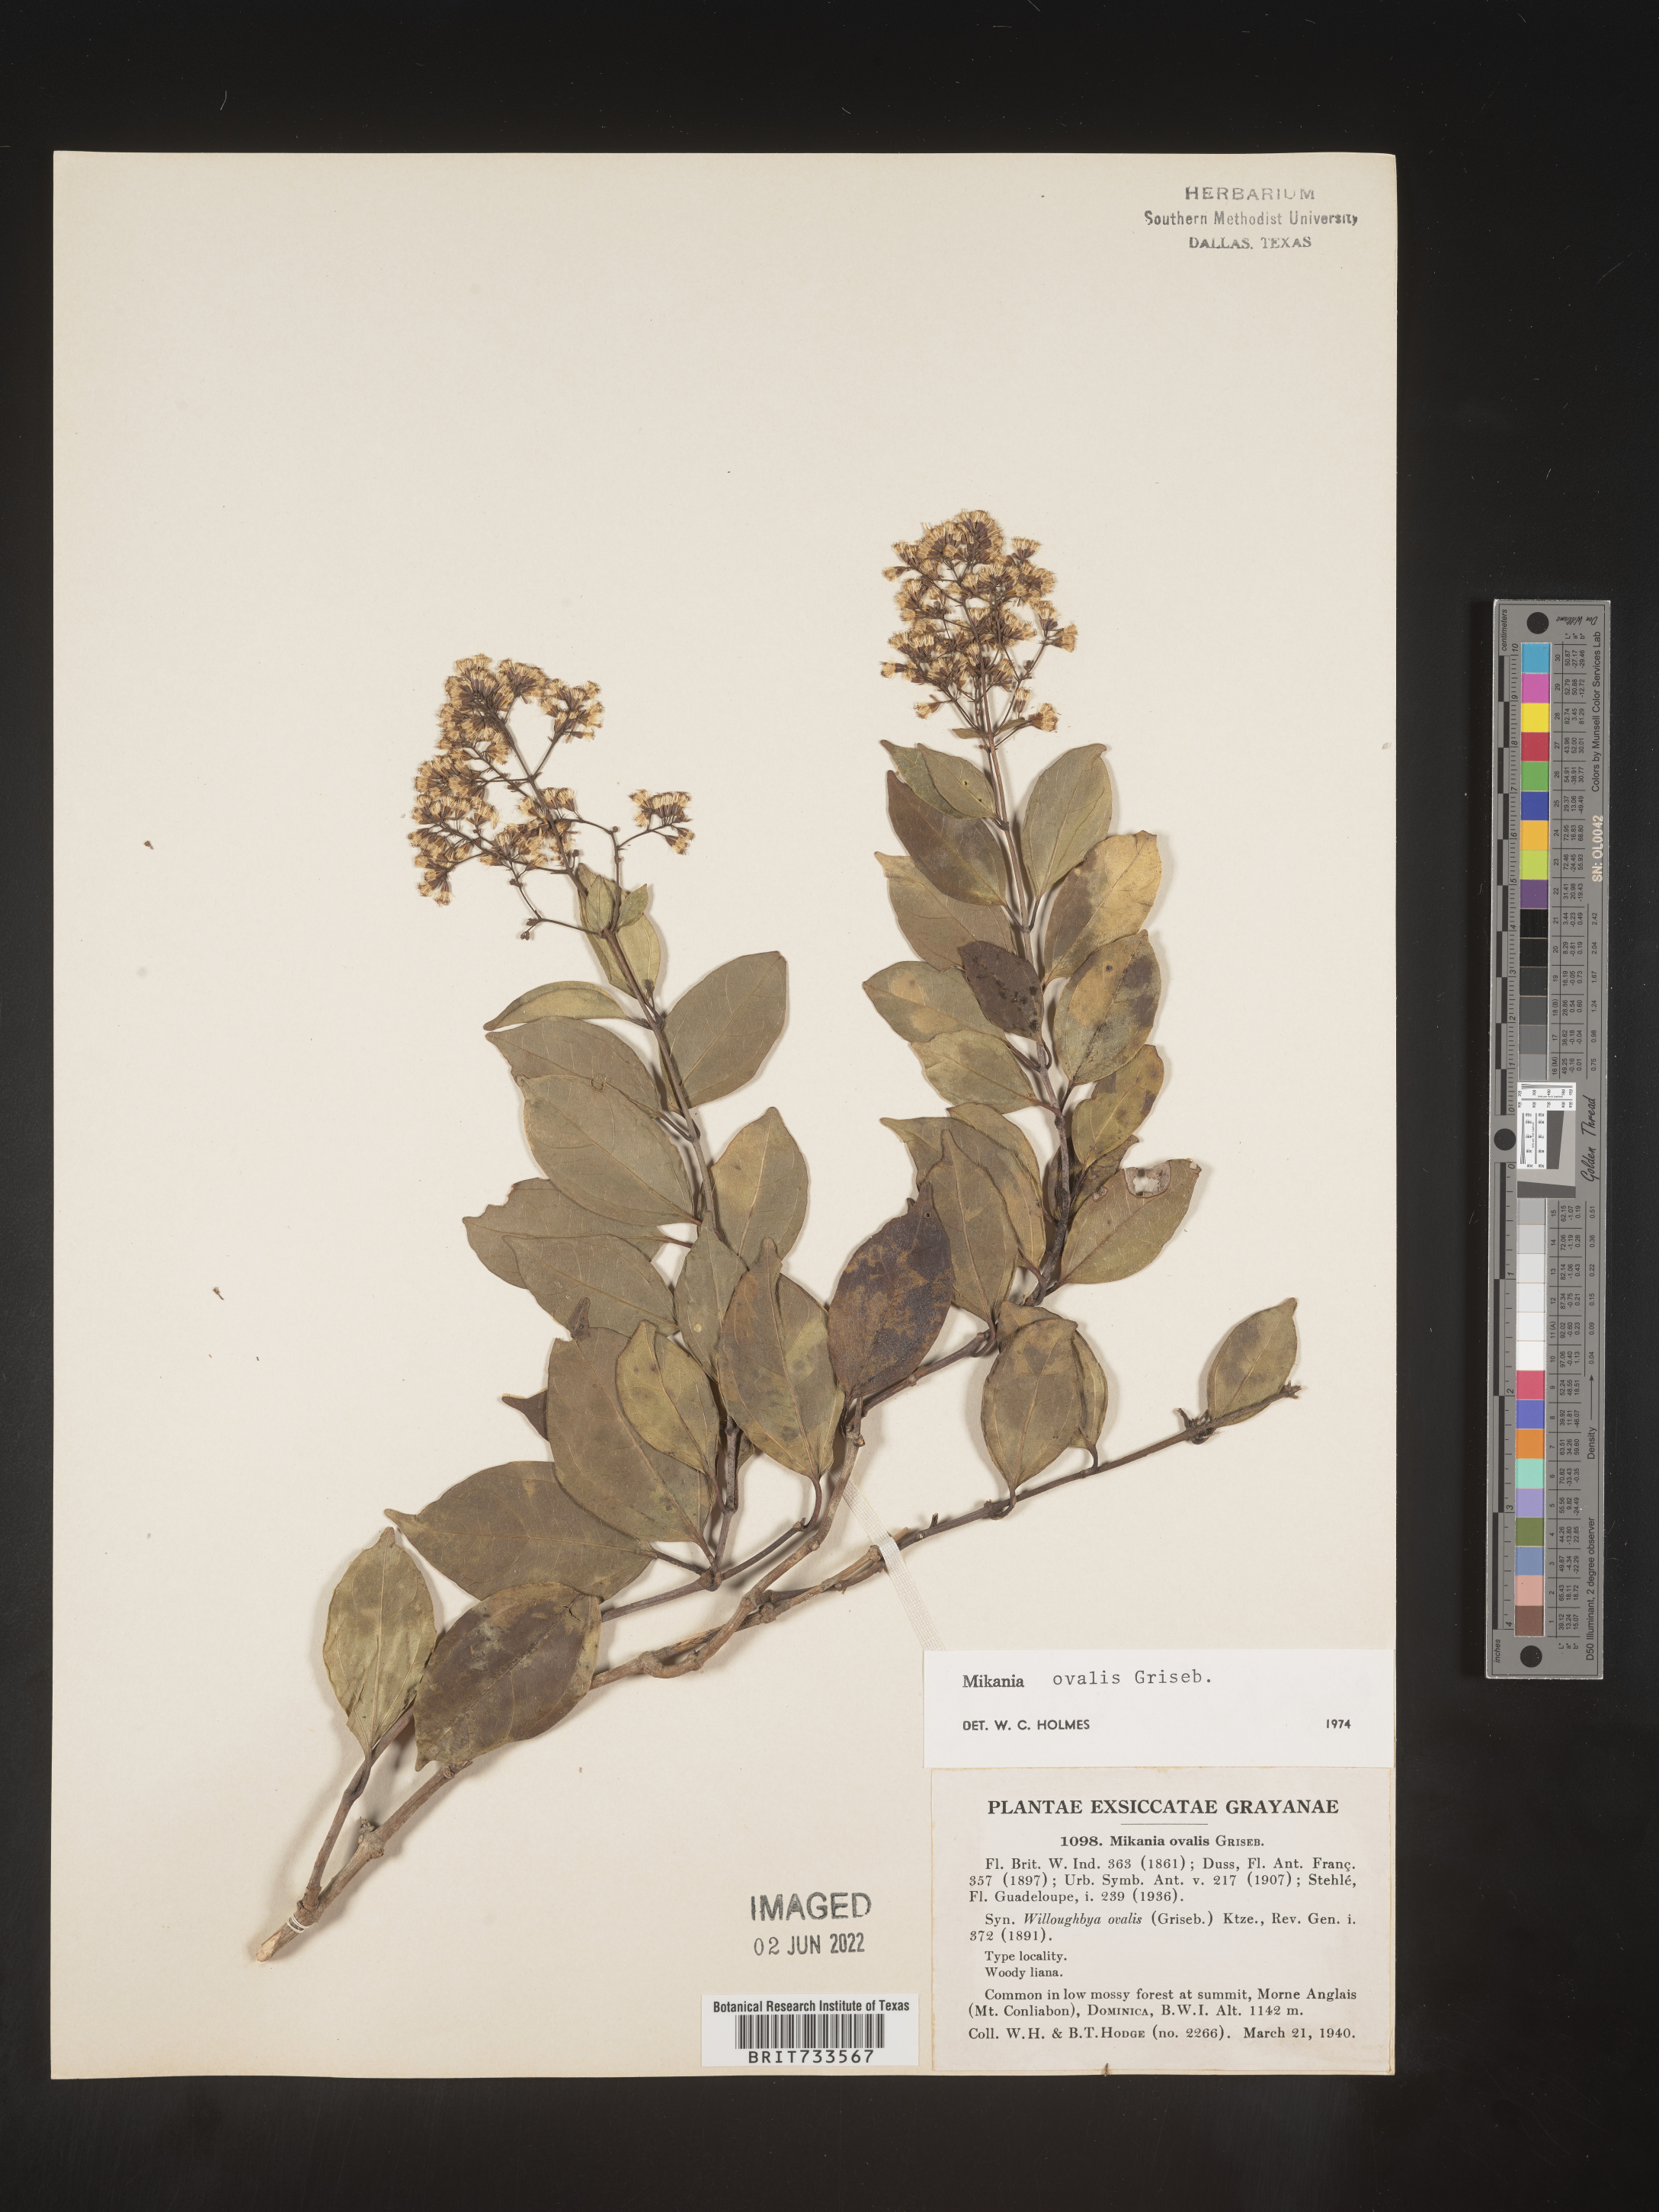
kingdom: Plantae
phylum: Tracheophyta
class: Magnoliopsida
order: Asterales
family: Asteraceae
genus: Mikania
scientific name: Mikania
